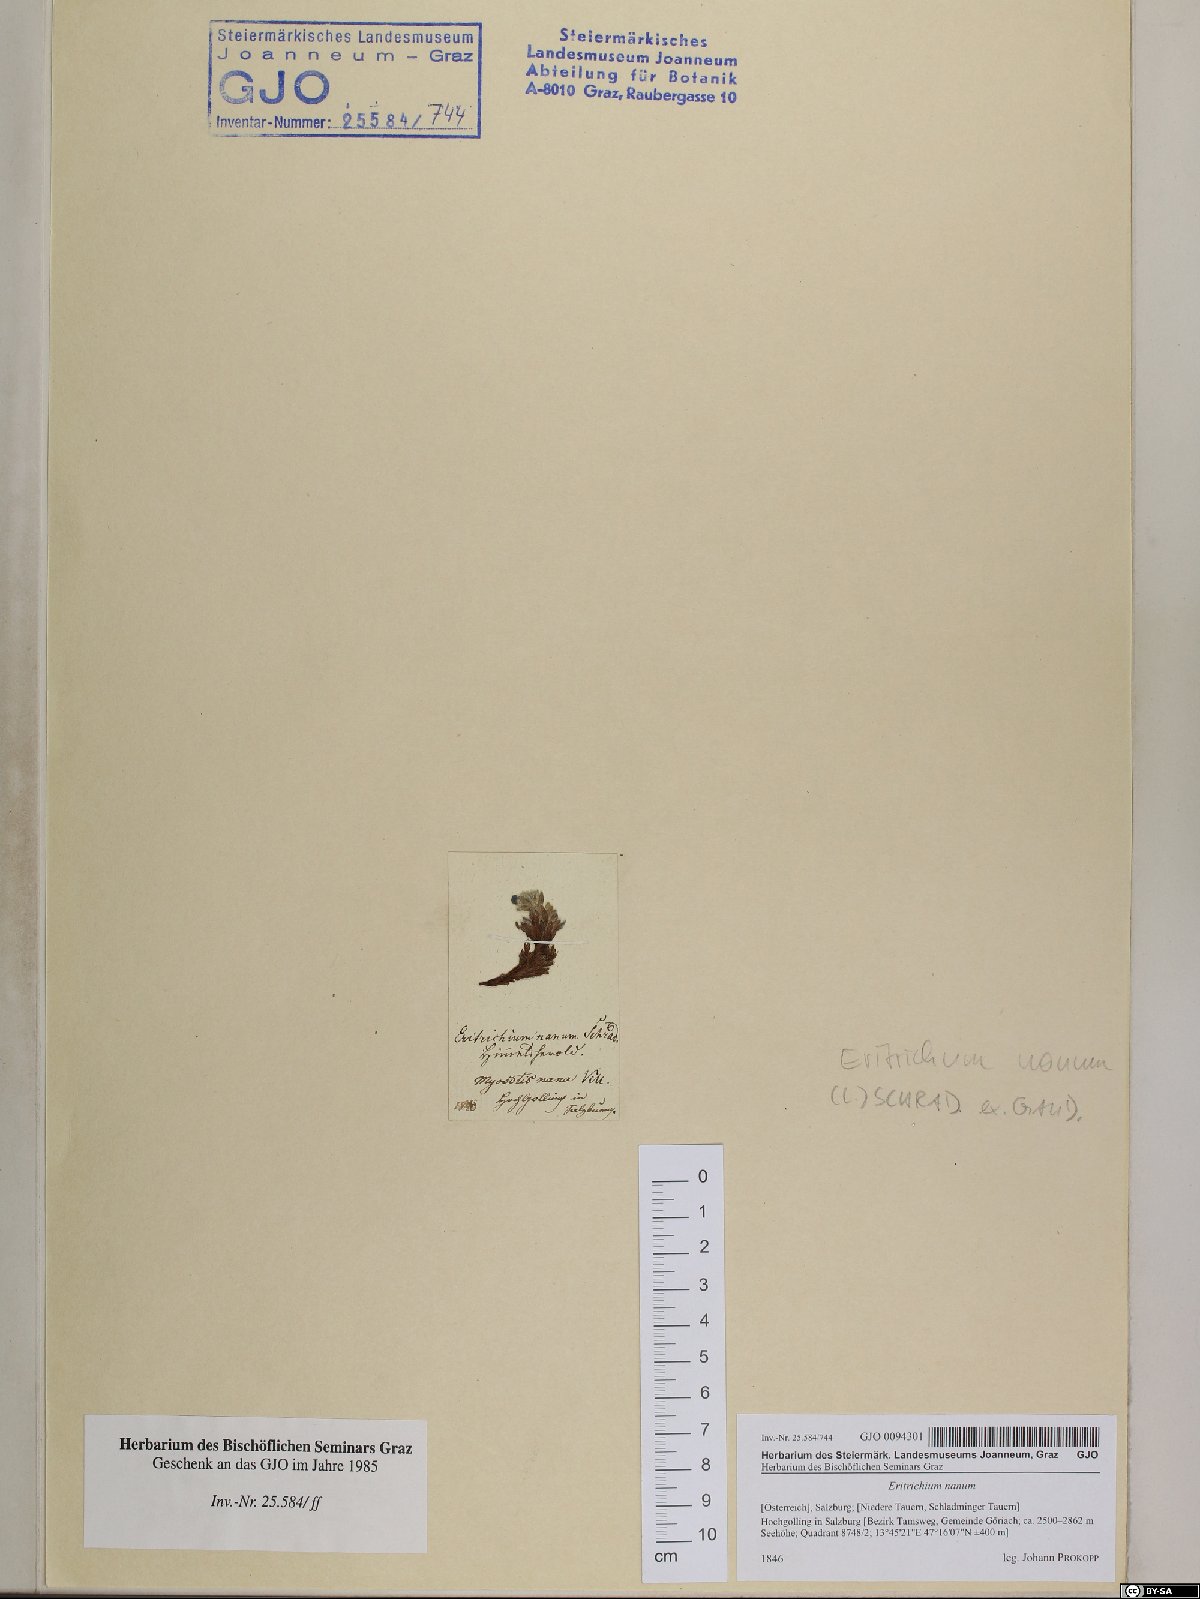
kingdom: Plantae
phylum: Tracheophyta
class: Magnoliopsida
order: Boraginales
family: Boraginaceae
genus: Eritrichium
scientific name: Eritrichium nanum
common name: King-of-the-alps
